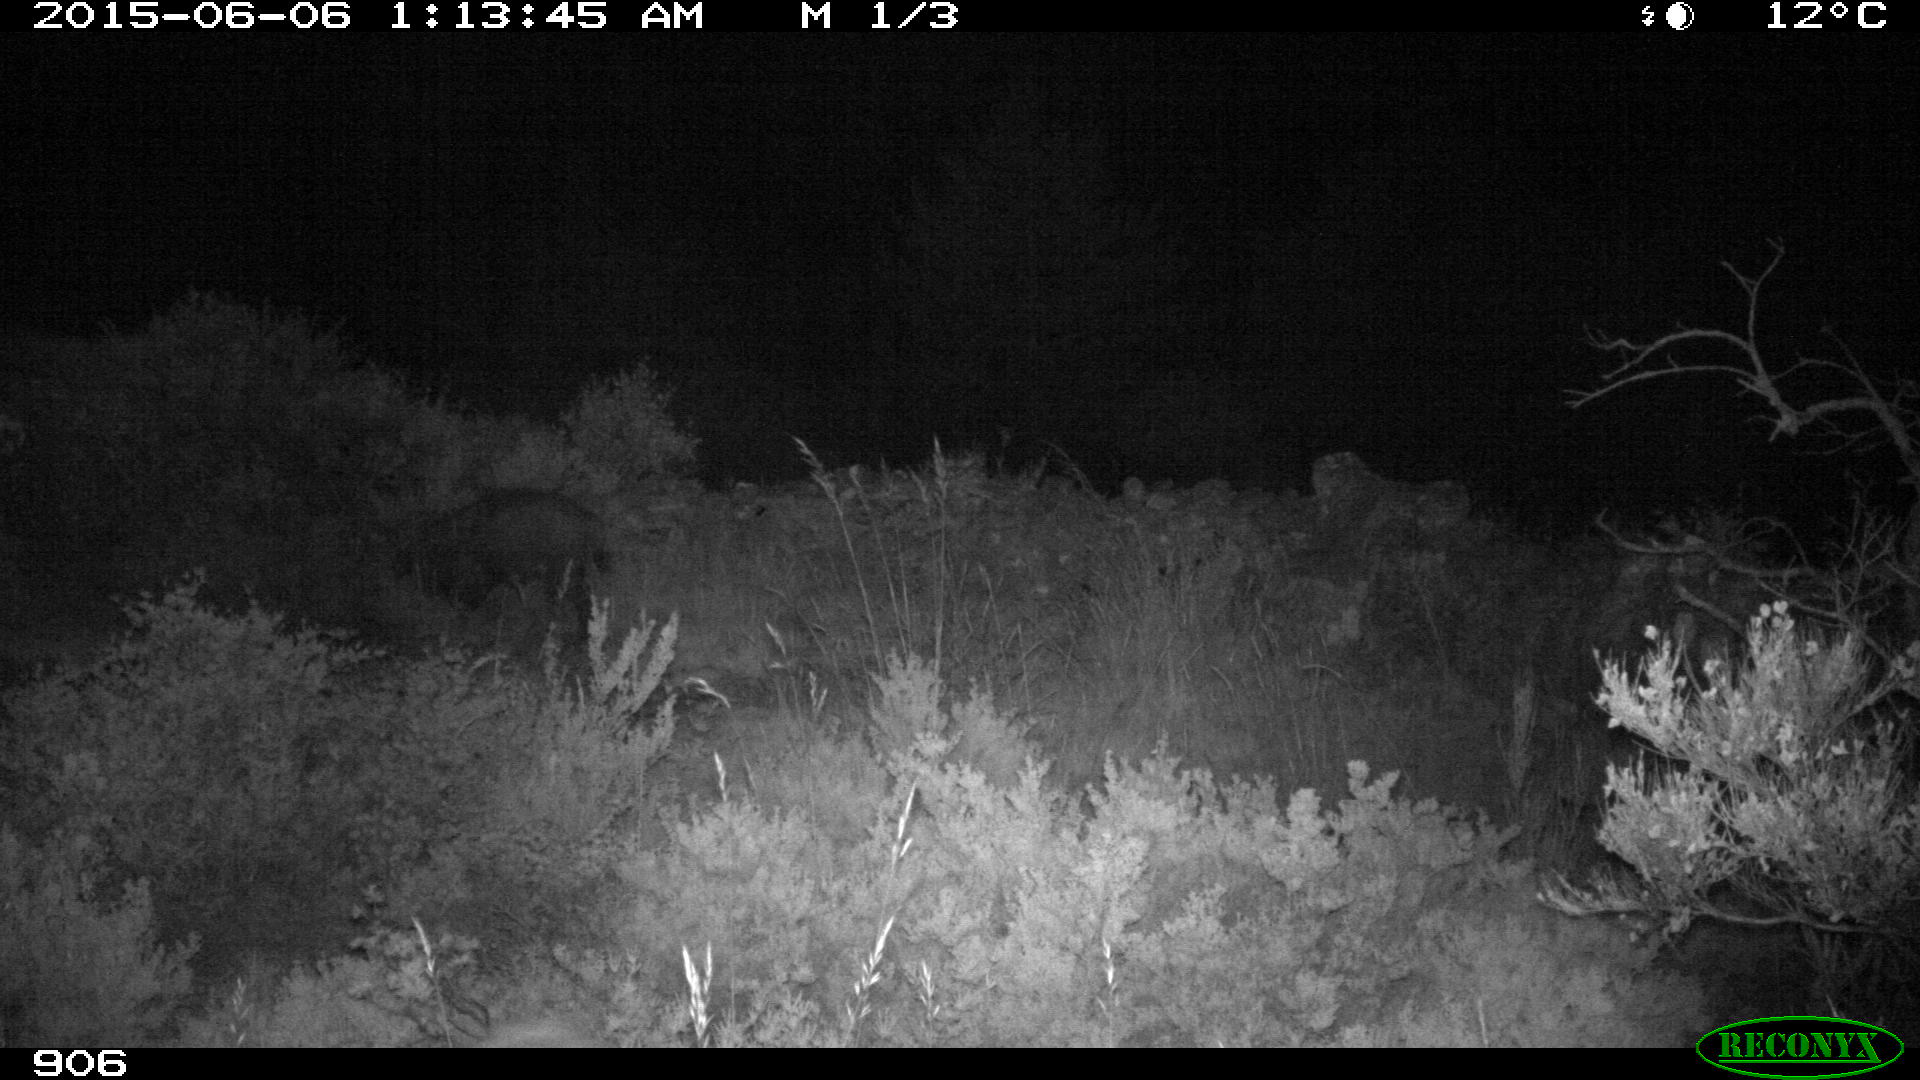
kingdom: Animalia
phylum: Chordata
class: Mammalia
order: Artiodactyla
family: Suidae
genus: Sus
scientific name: Sus scrofa
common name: Wild boar
